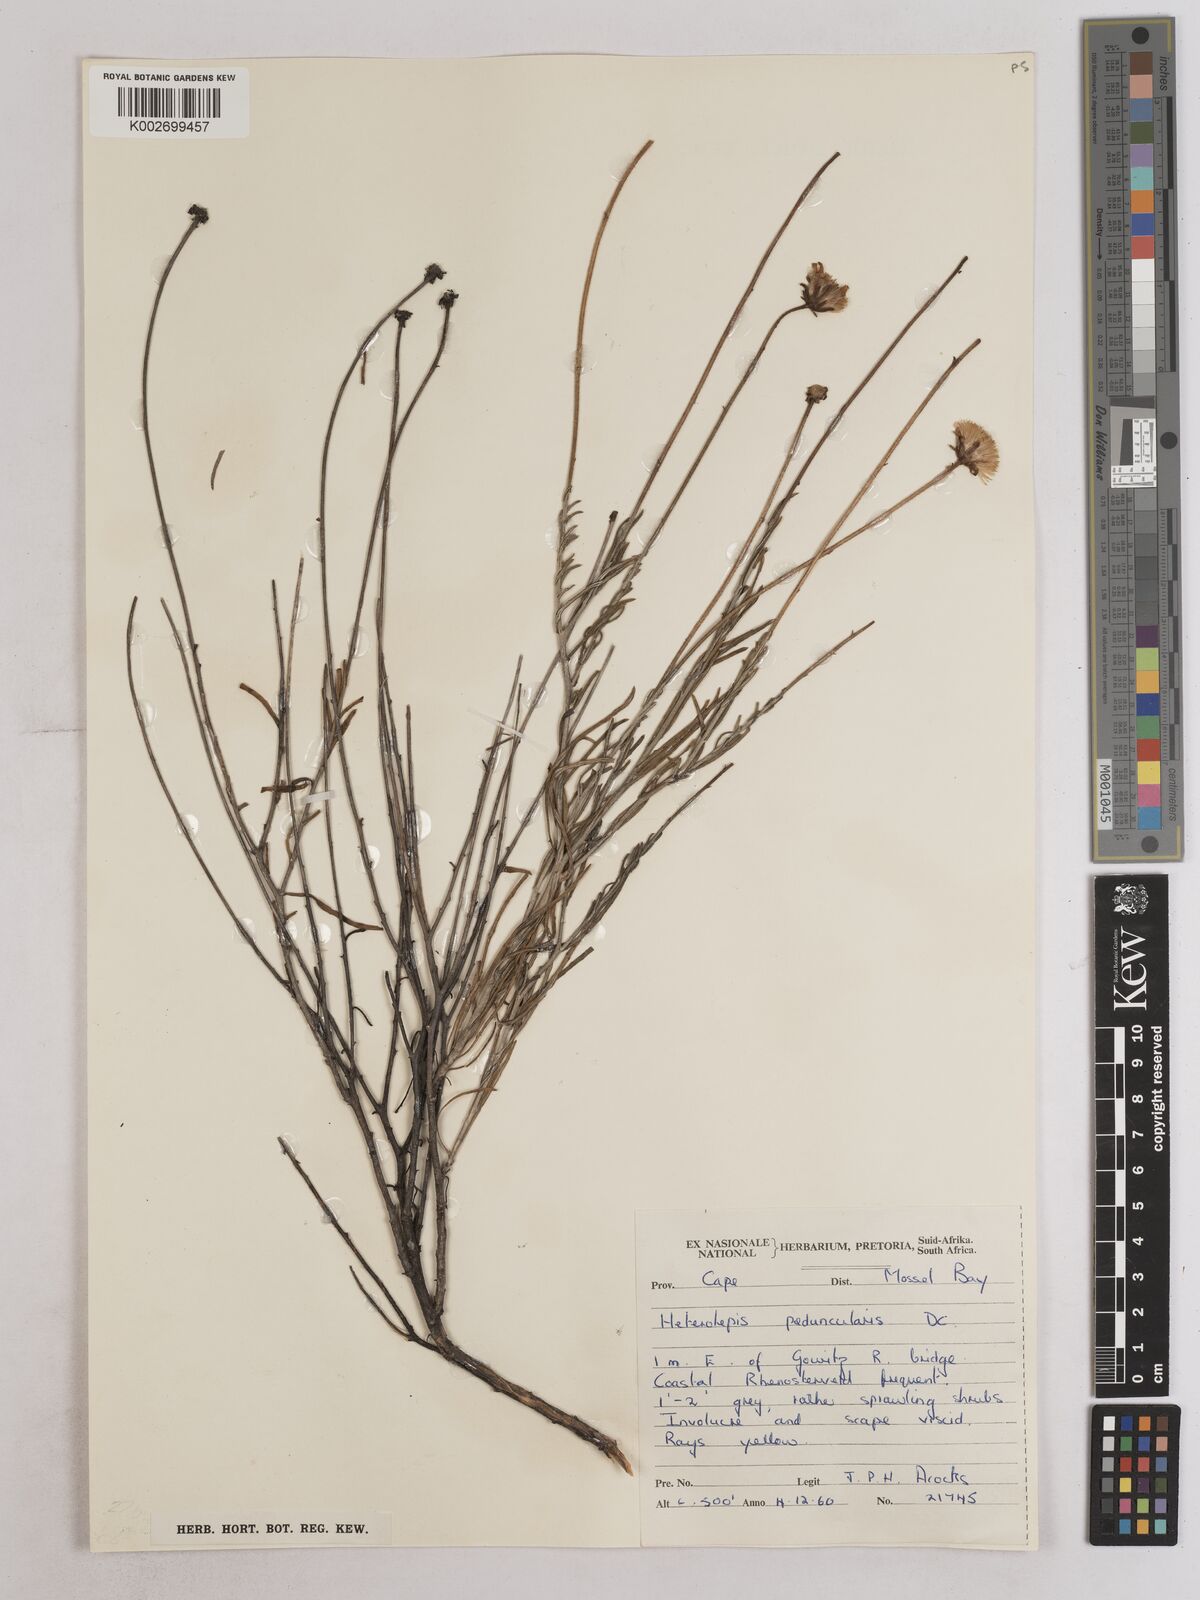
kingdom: Plantae
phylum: Tracheophyta
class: Magnoliopsida
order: Asterales
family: Asteraceae
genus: Heterolepis
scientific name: Heterolepis peduncularis
